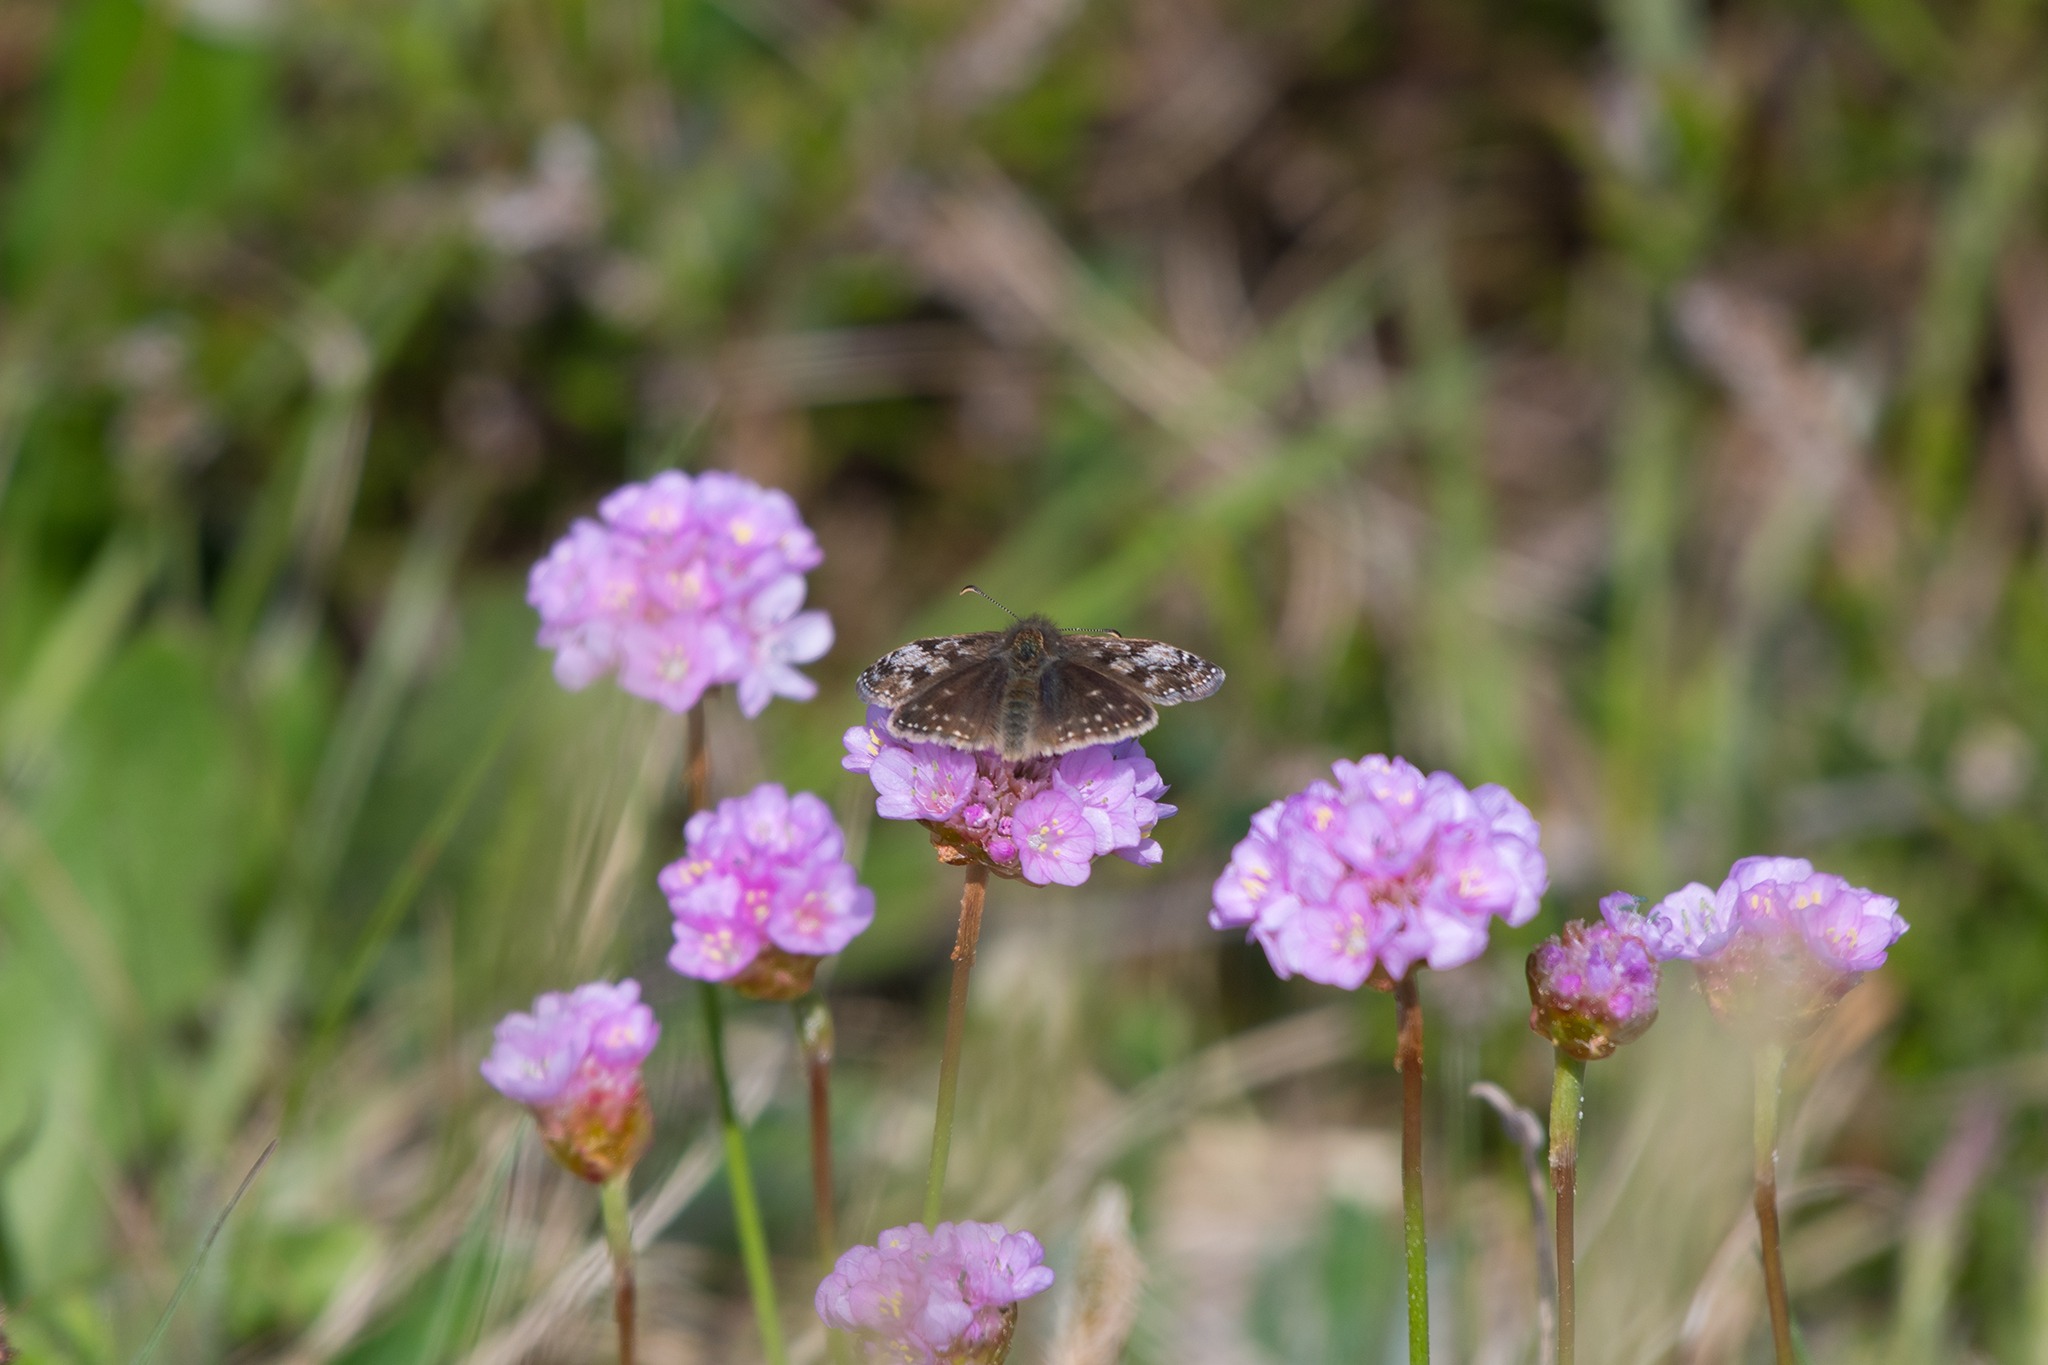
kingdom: Animalia
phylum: Arthropoda
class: Insecta
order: Lepidoptera
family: Hesperiidae
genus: Erynnis
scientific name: Erynnis tages
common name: Gråbåndet bredpande
